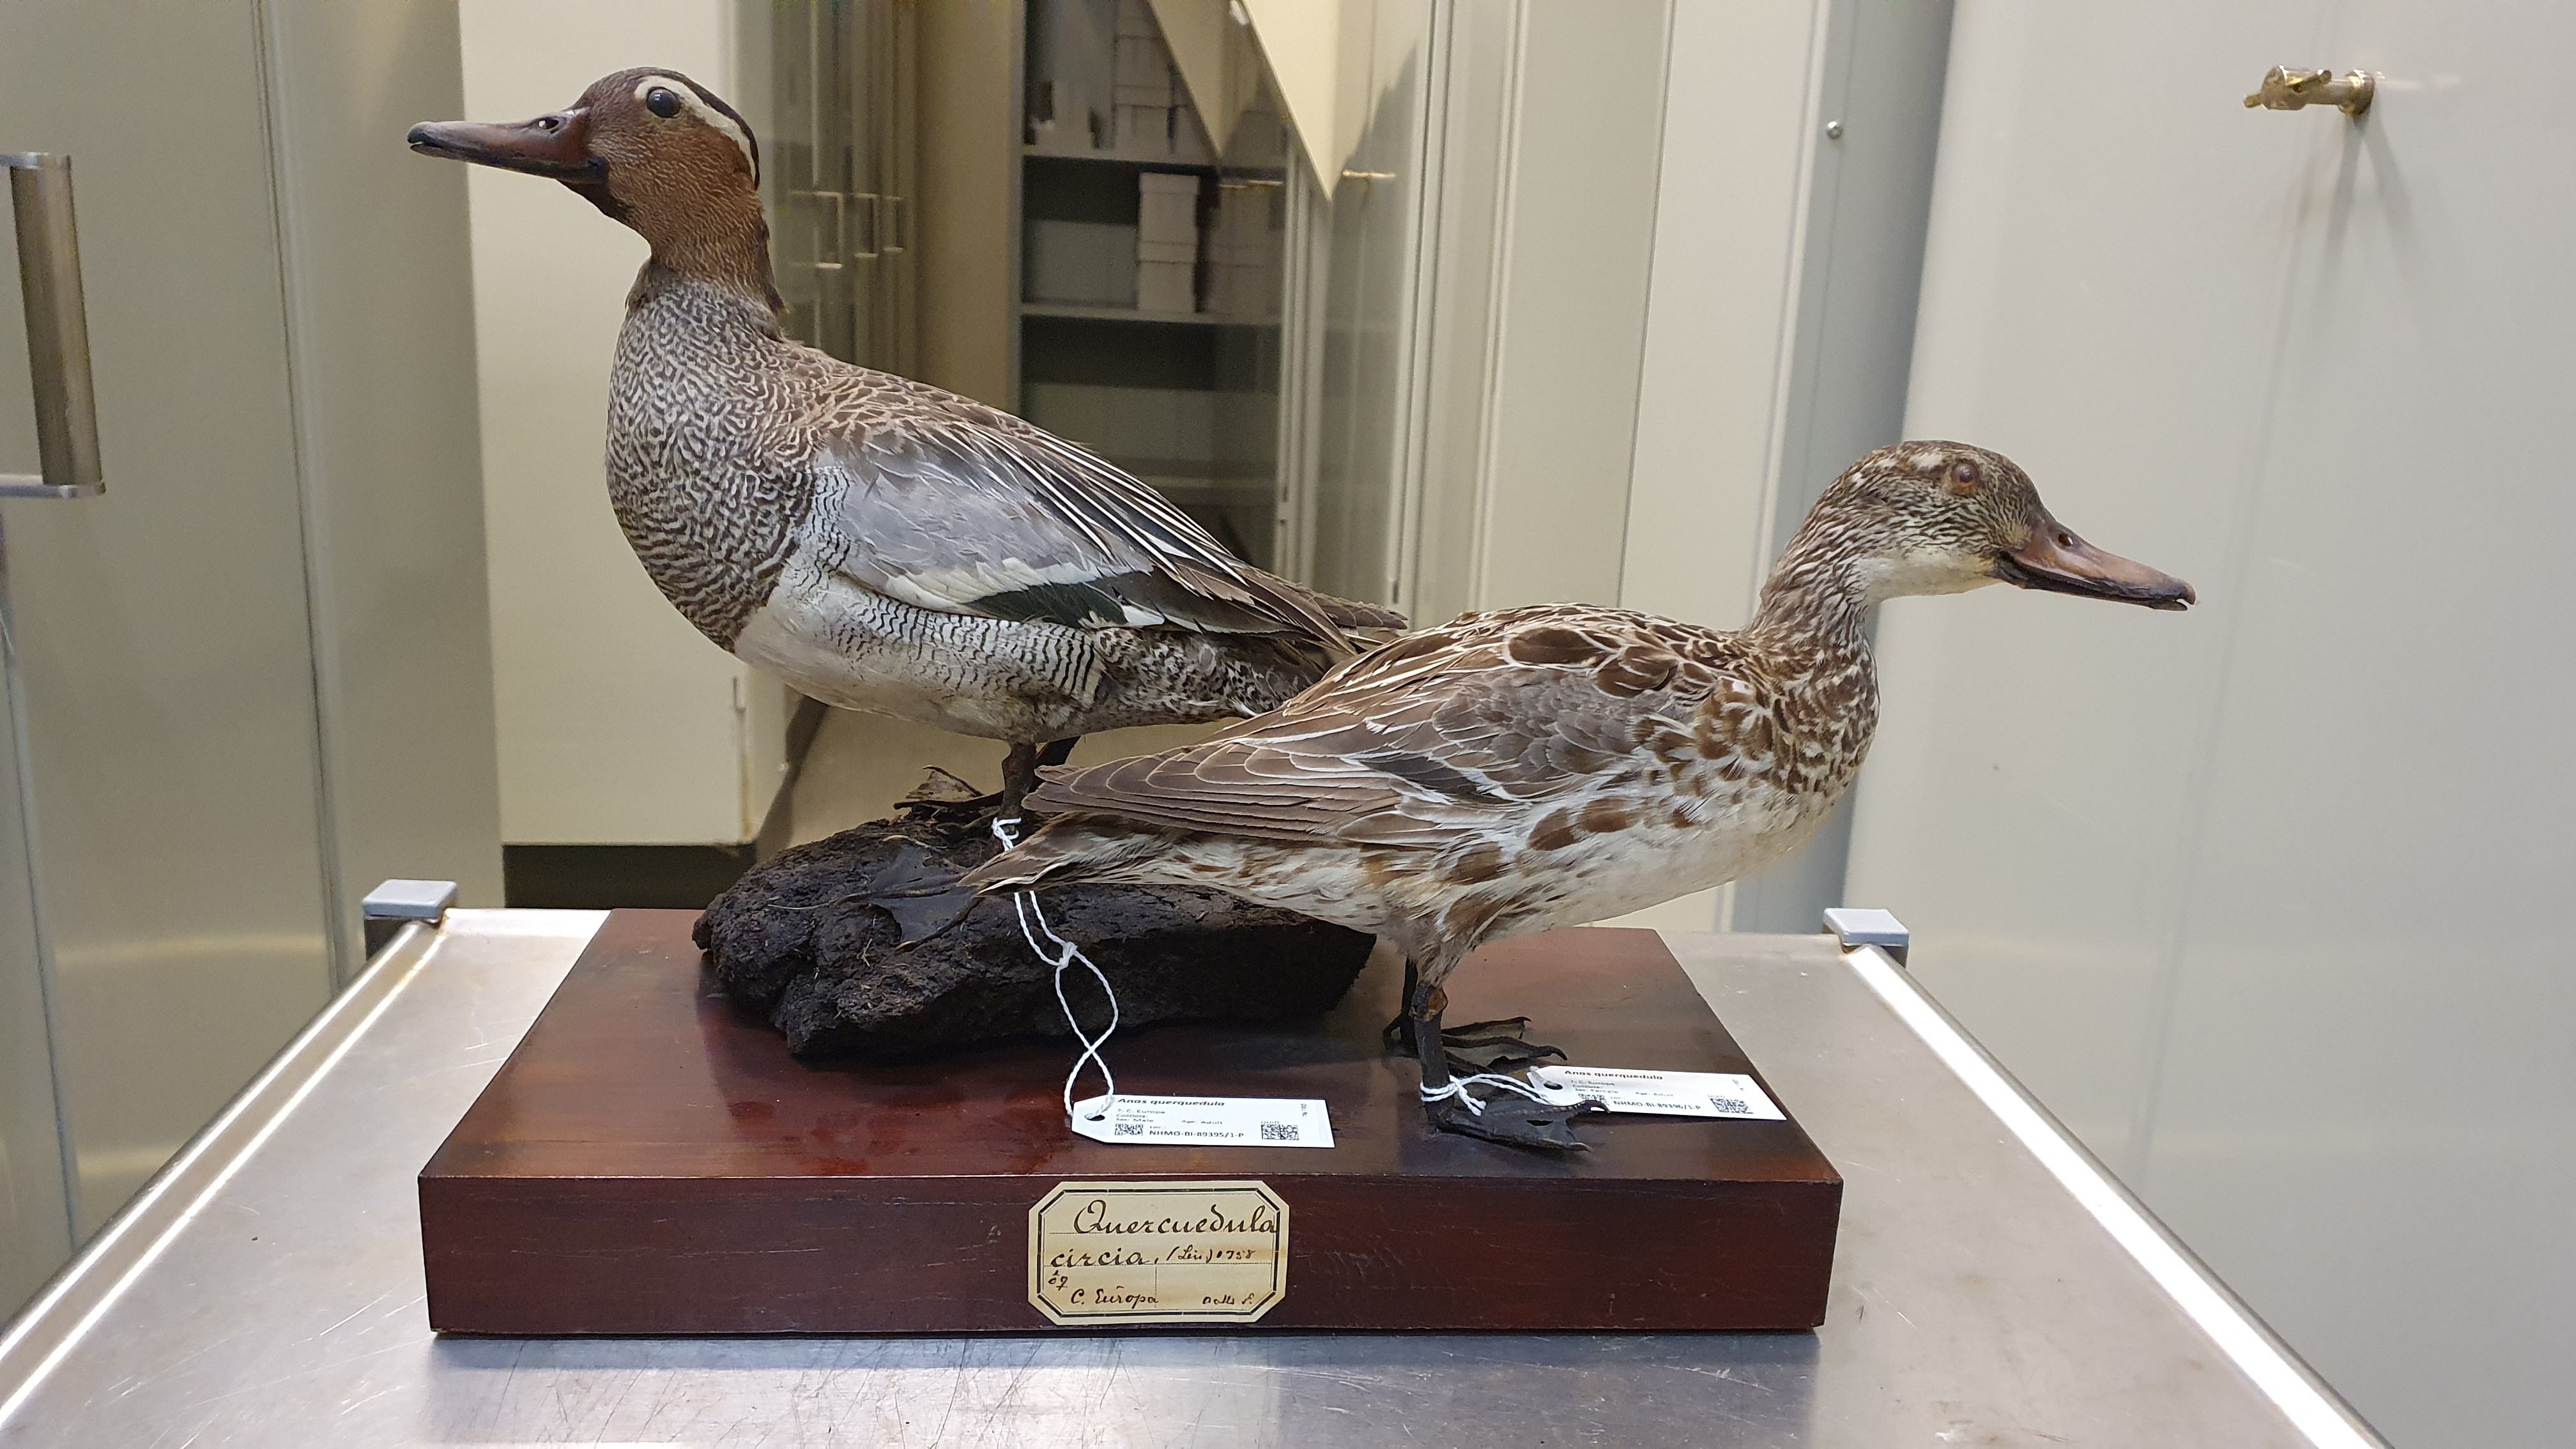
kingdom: Animalia
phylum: Chordata
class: Aves
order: Anseriformes
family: Anatidae
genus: Spatula
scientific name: Spatula querquedula
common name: Garganey
